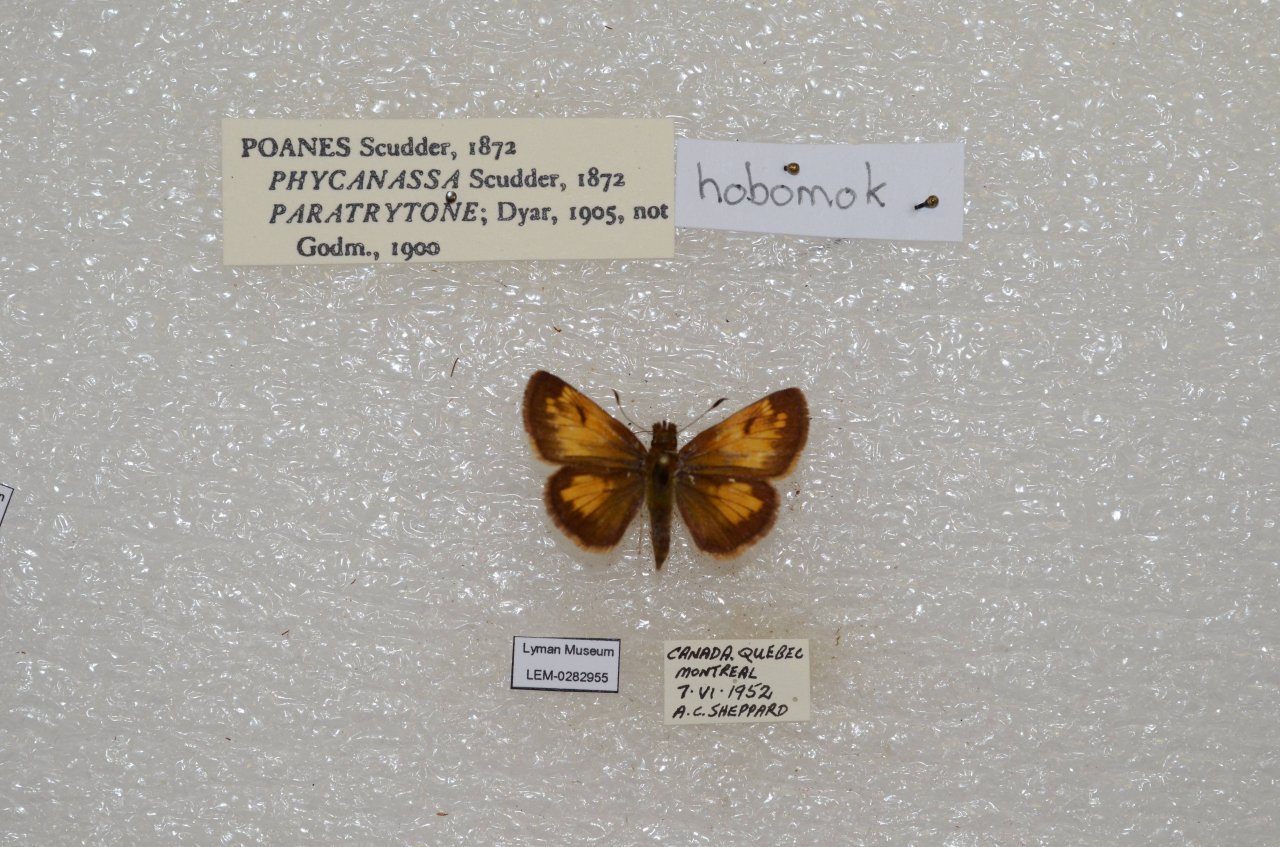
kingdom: Animalia
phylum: Arthropoda
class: Insecta
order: Lepidoptera
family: Hesperiidae
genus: Lon
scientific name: Lon hobomok
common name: Hobomok Skipper
